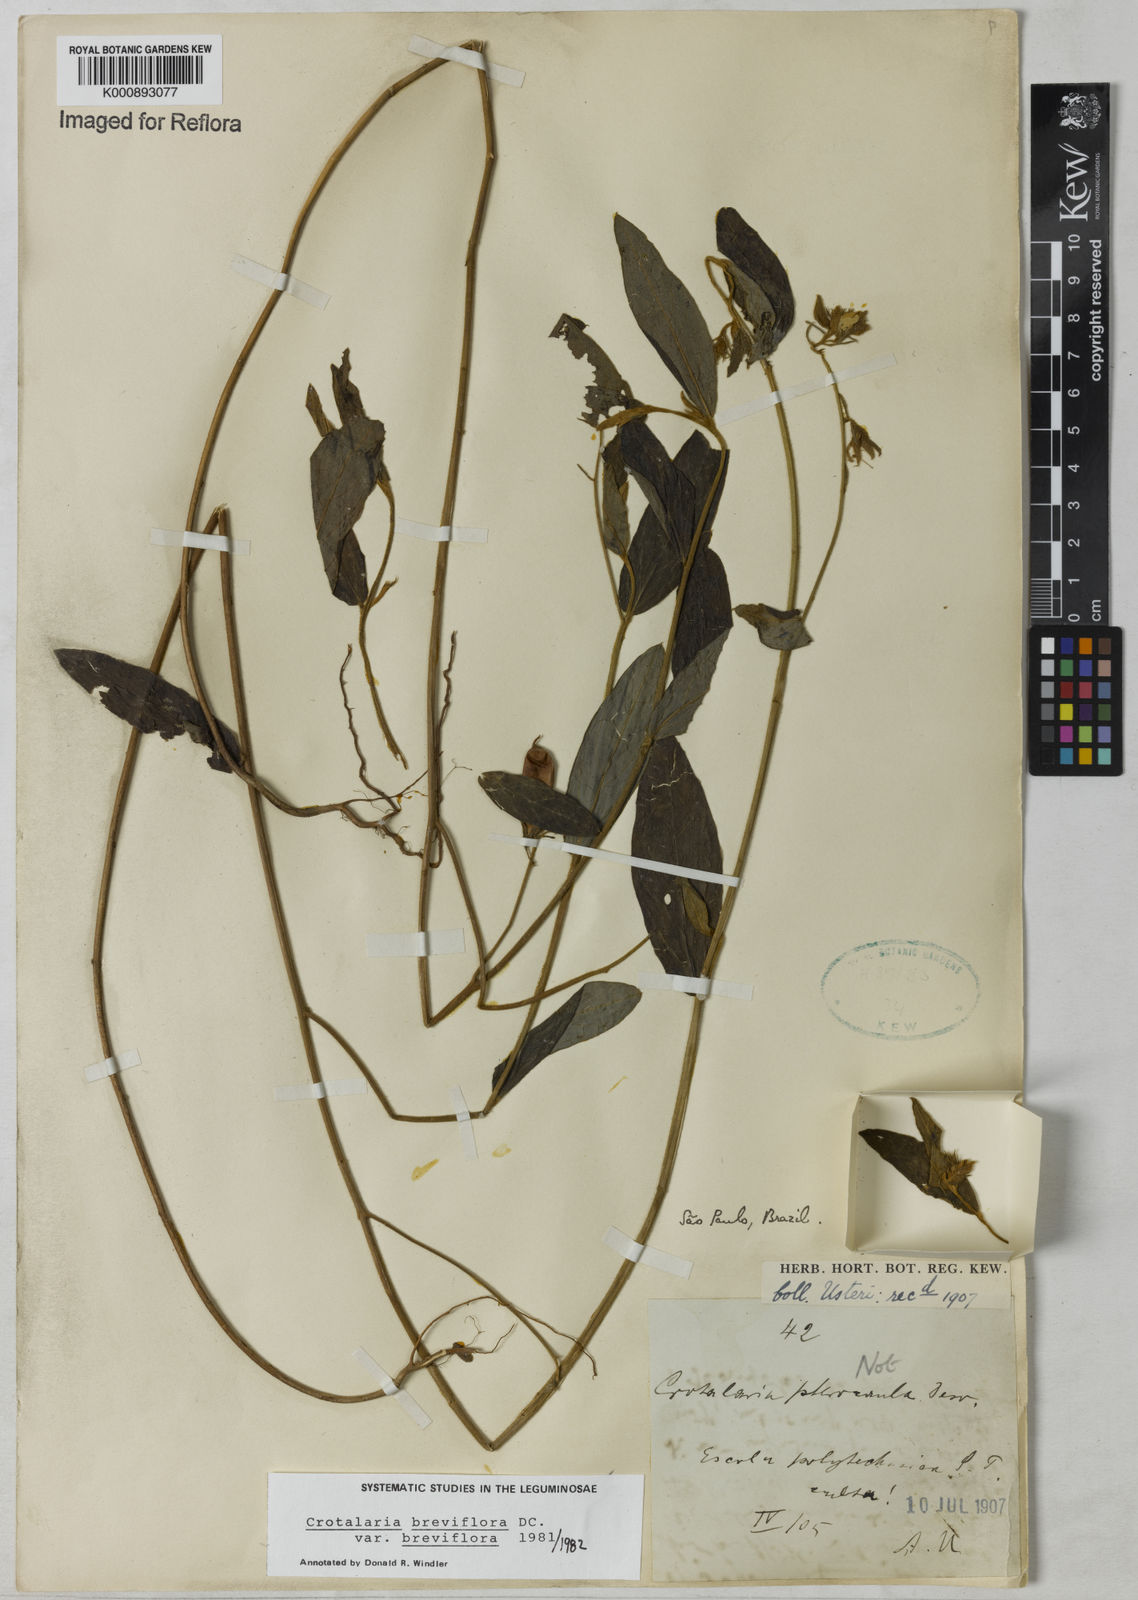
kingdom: Plantae
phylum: Tracheophyta
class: Magnoliopsida
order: Fabales
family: Fabaceae
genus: Crotalaria
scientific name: Crotalaria breviflora
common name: Short-flower crotalaria
